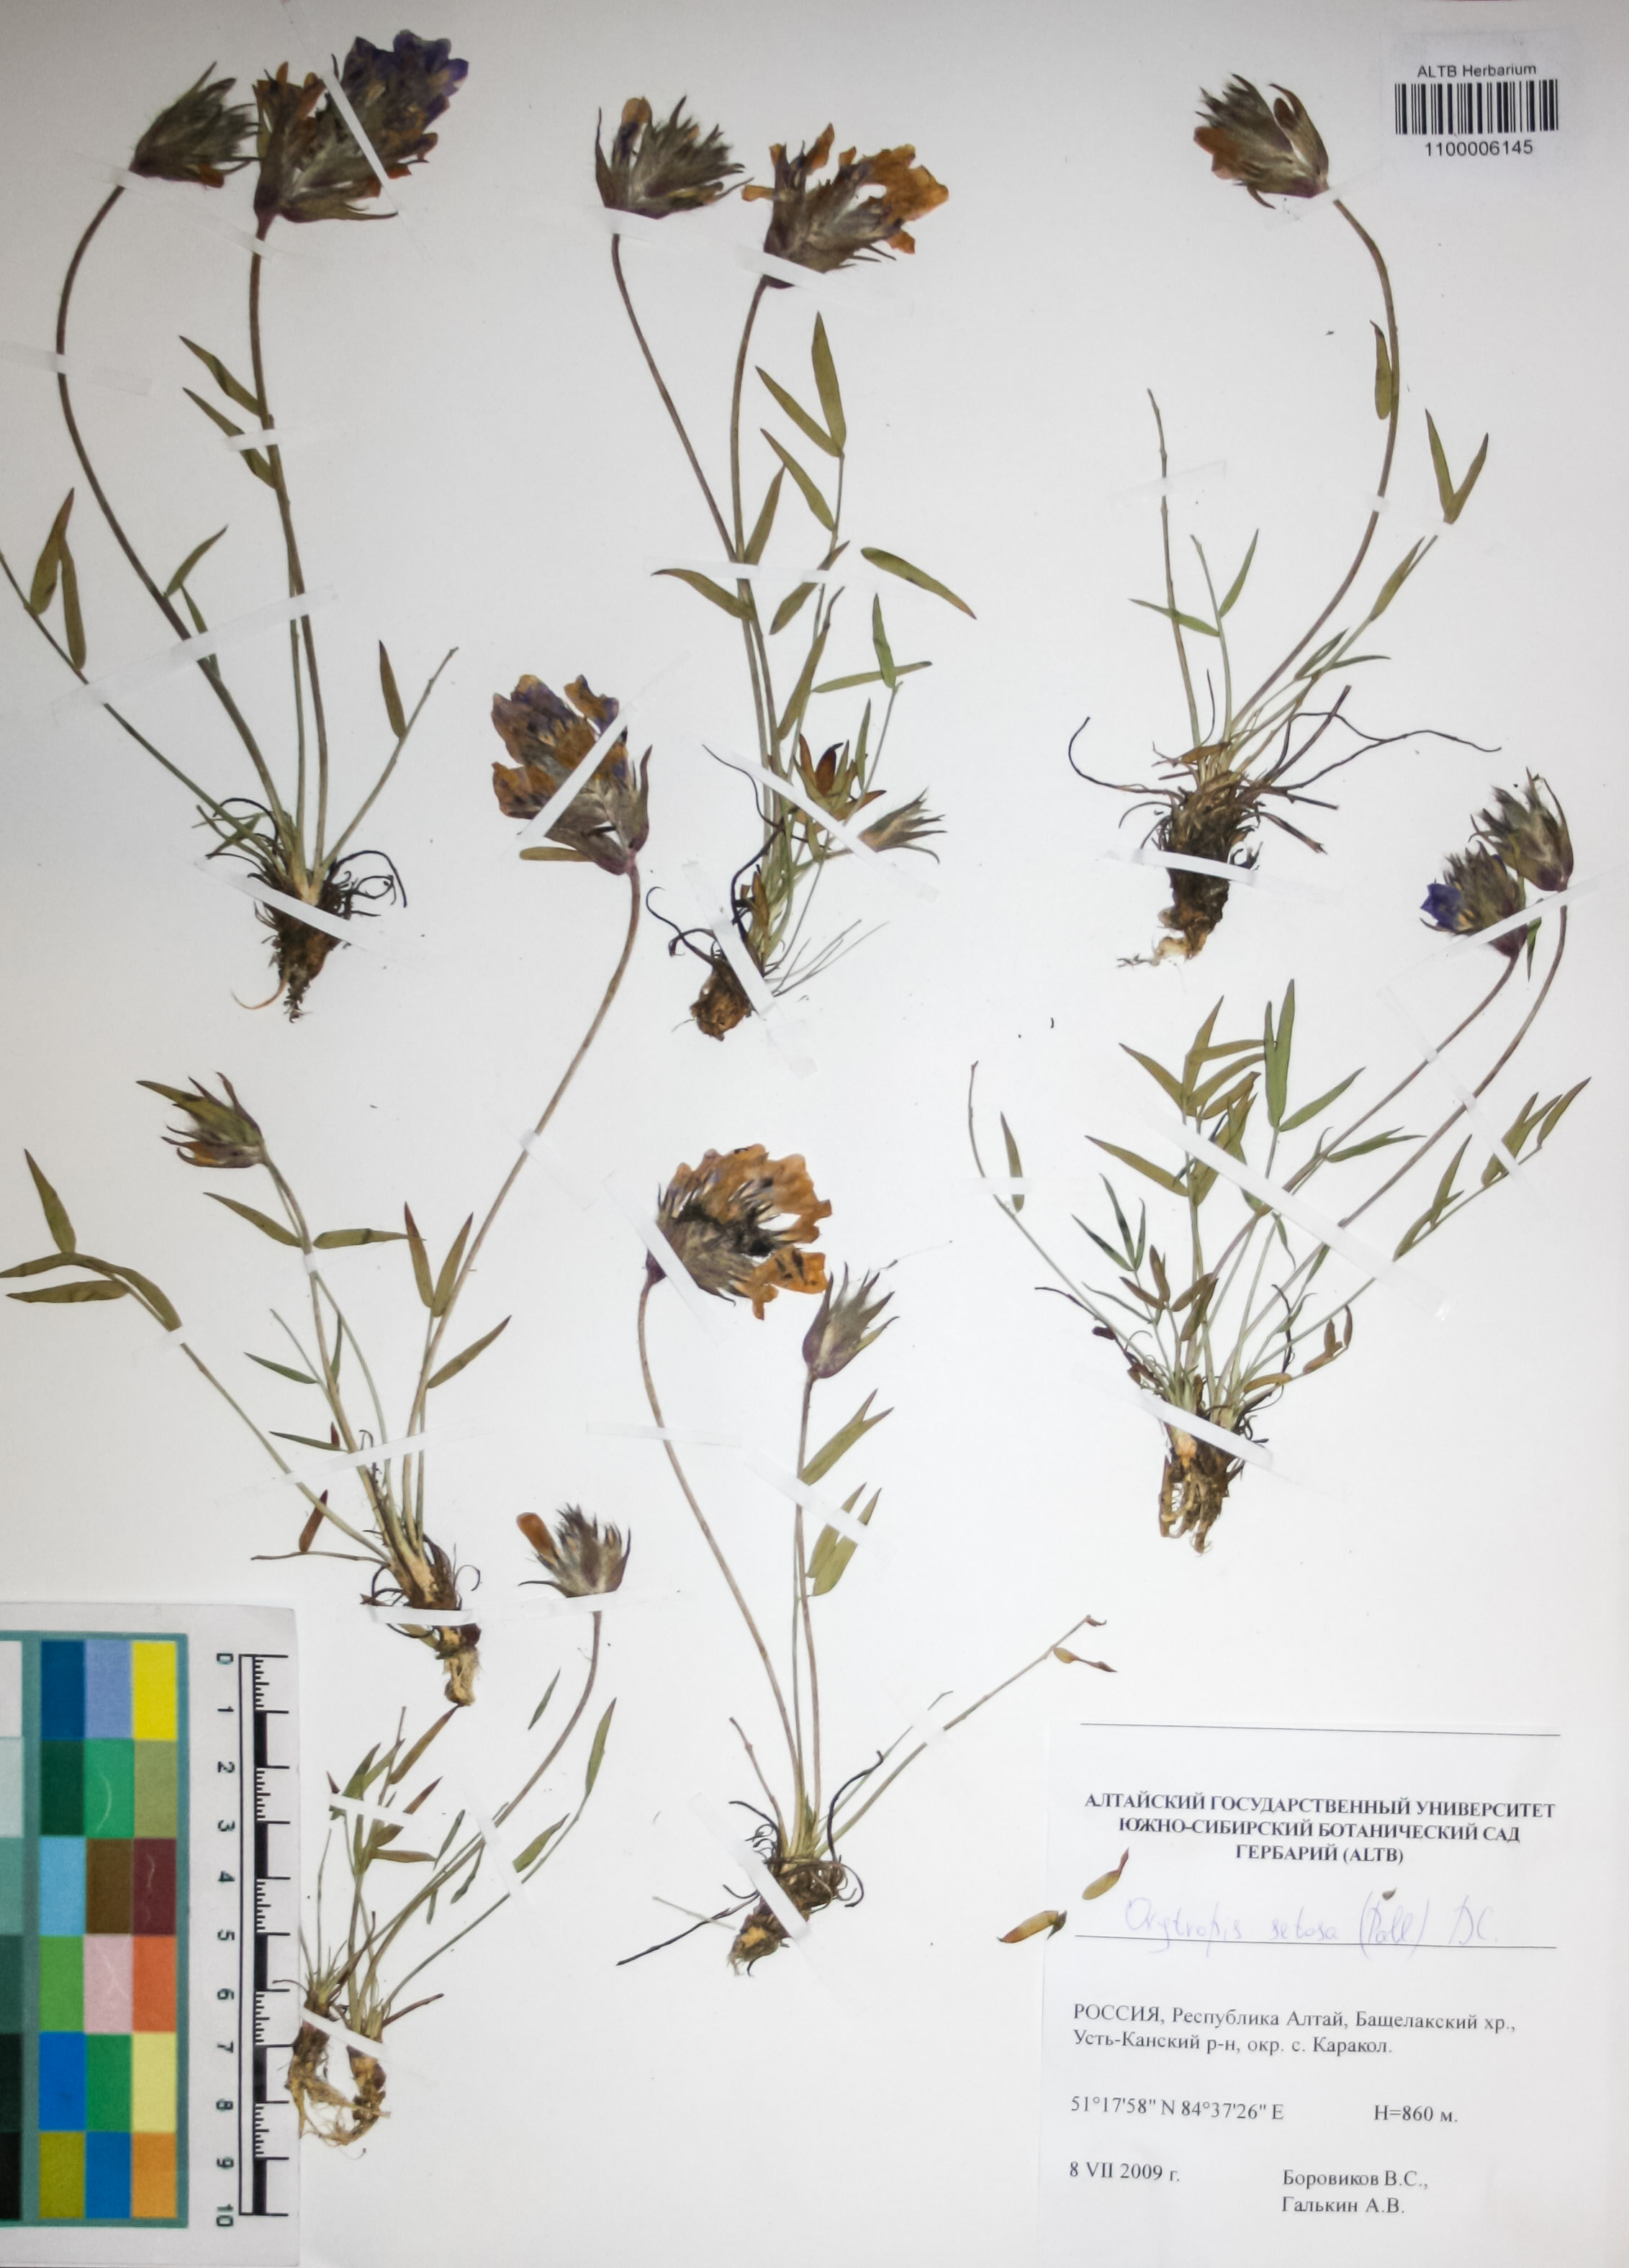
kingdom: Plantae
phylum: Tracheophyta
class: Magnoliopsida
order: Fabales
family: Fabaceae
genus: Oxytropis
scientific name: Oxytropis setosa
